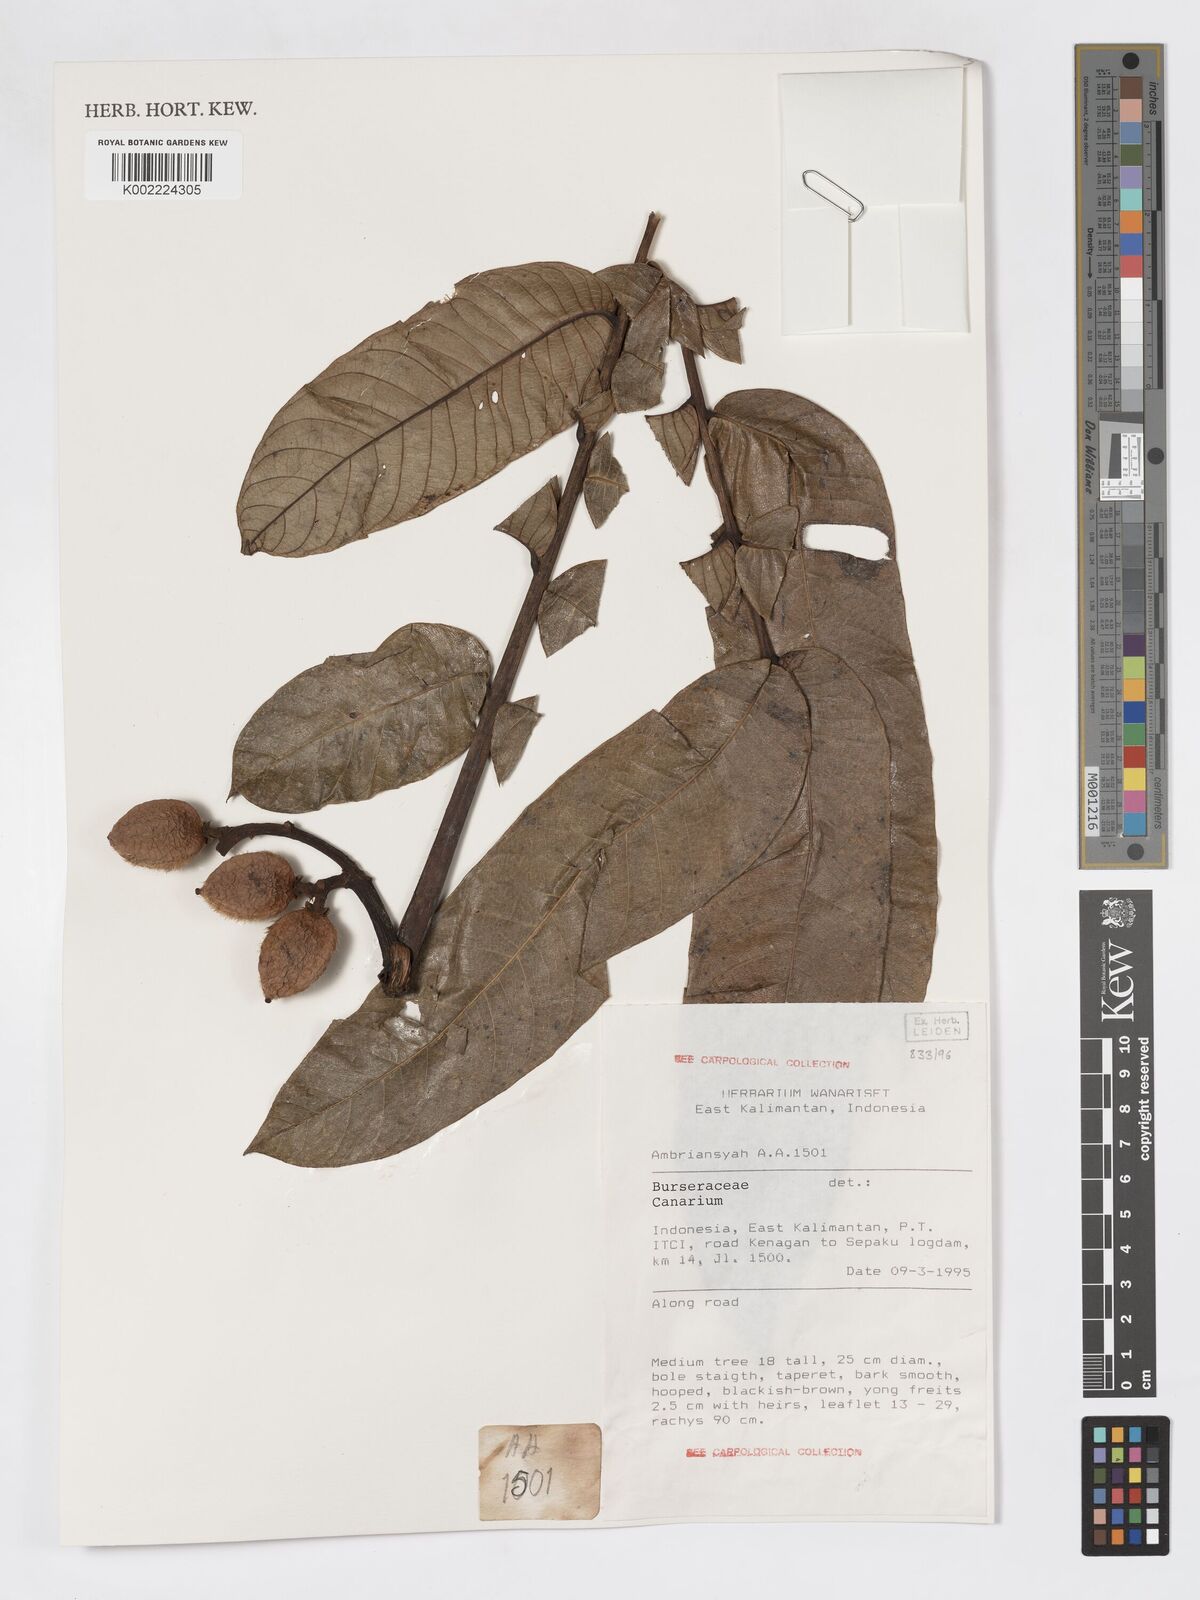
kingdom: Plantae
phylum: Tracheophyta
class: Magnoliopsida
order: Sapindales
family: Burseraceae
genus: Canarium
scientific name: Canarium
